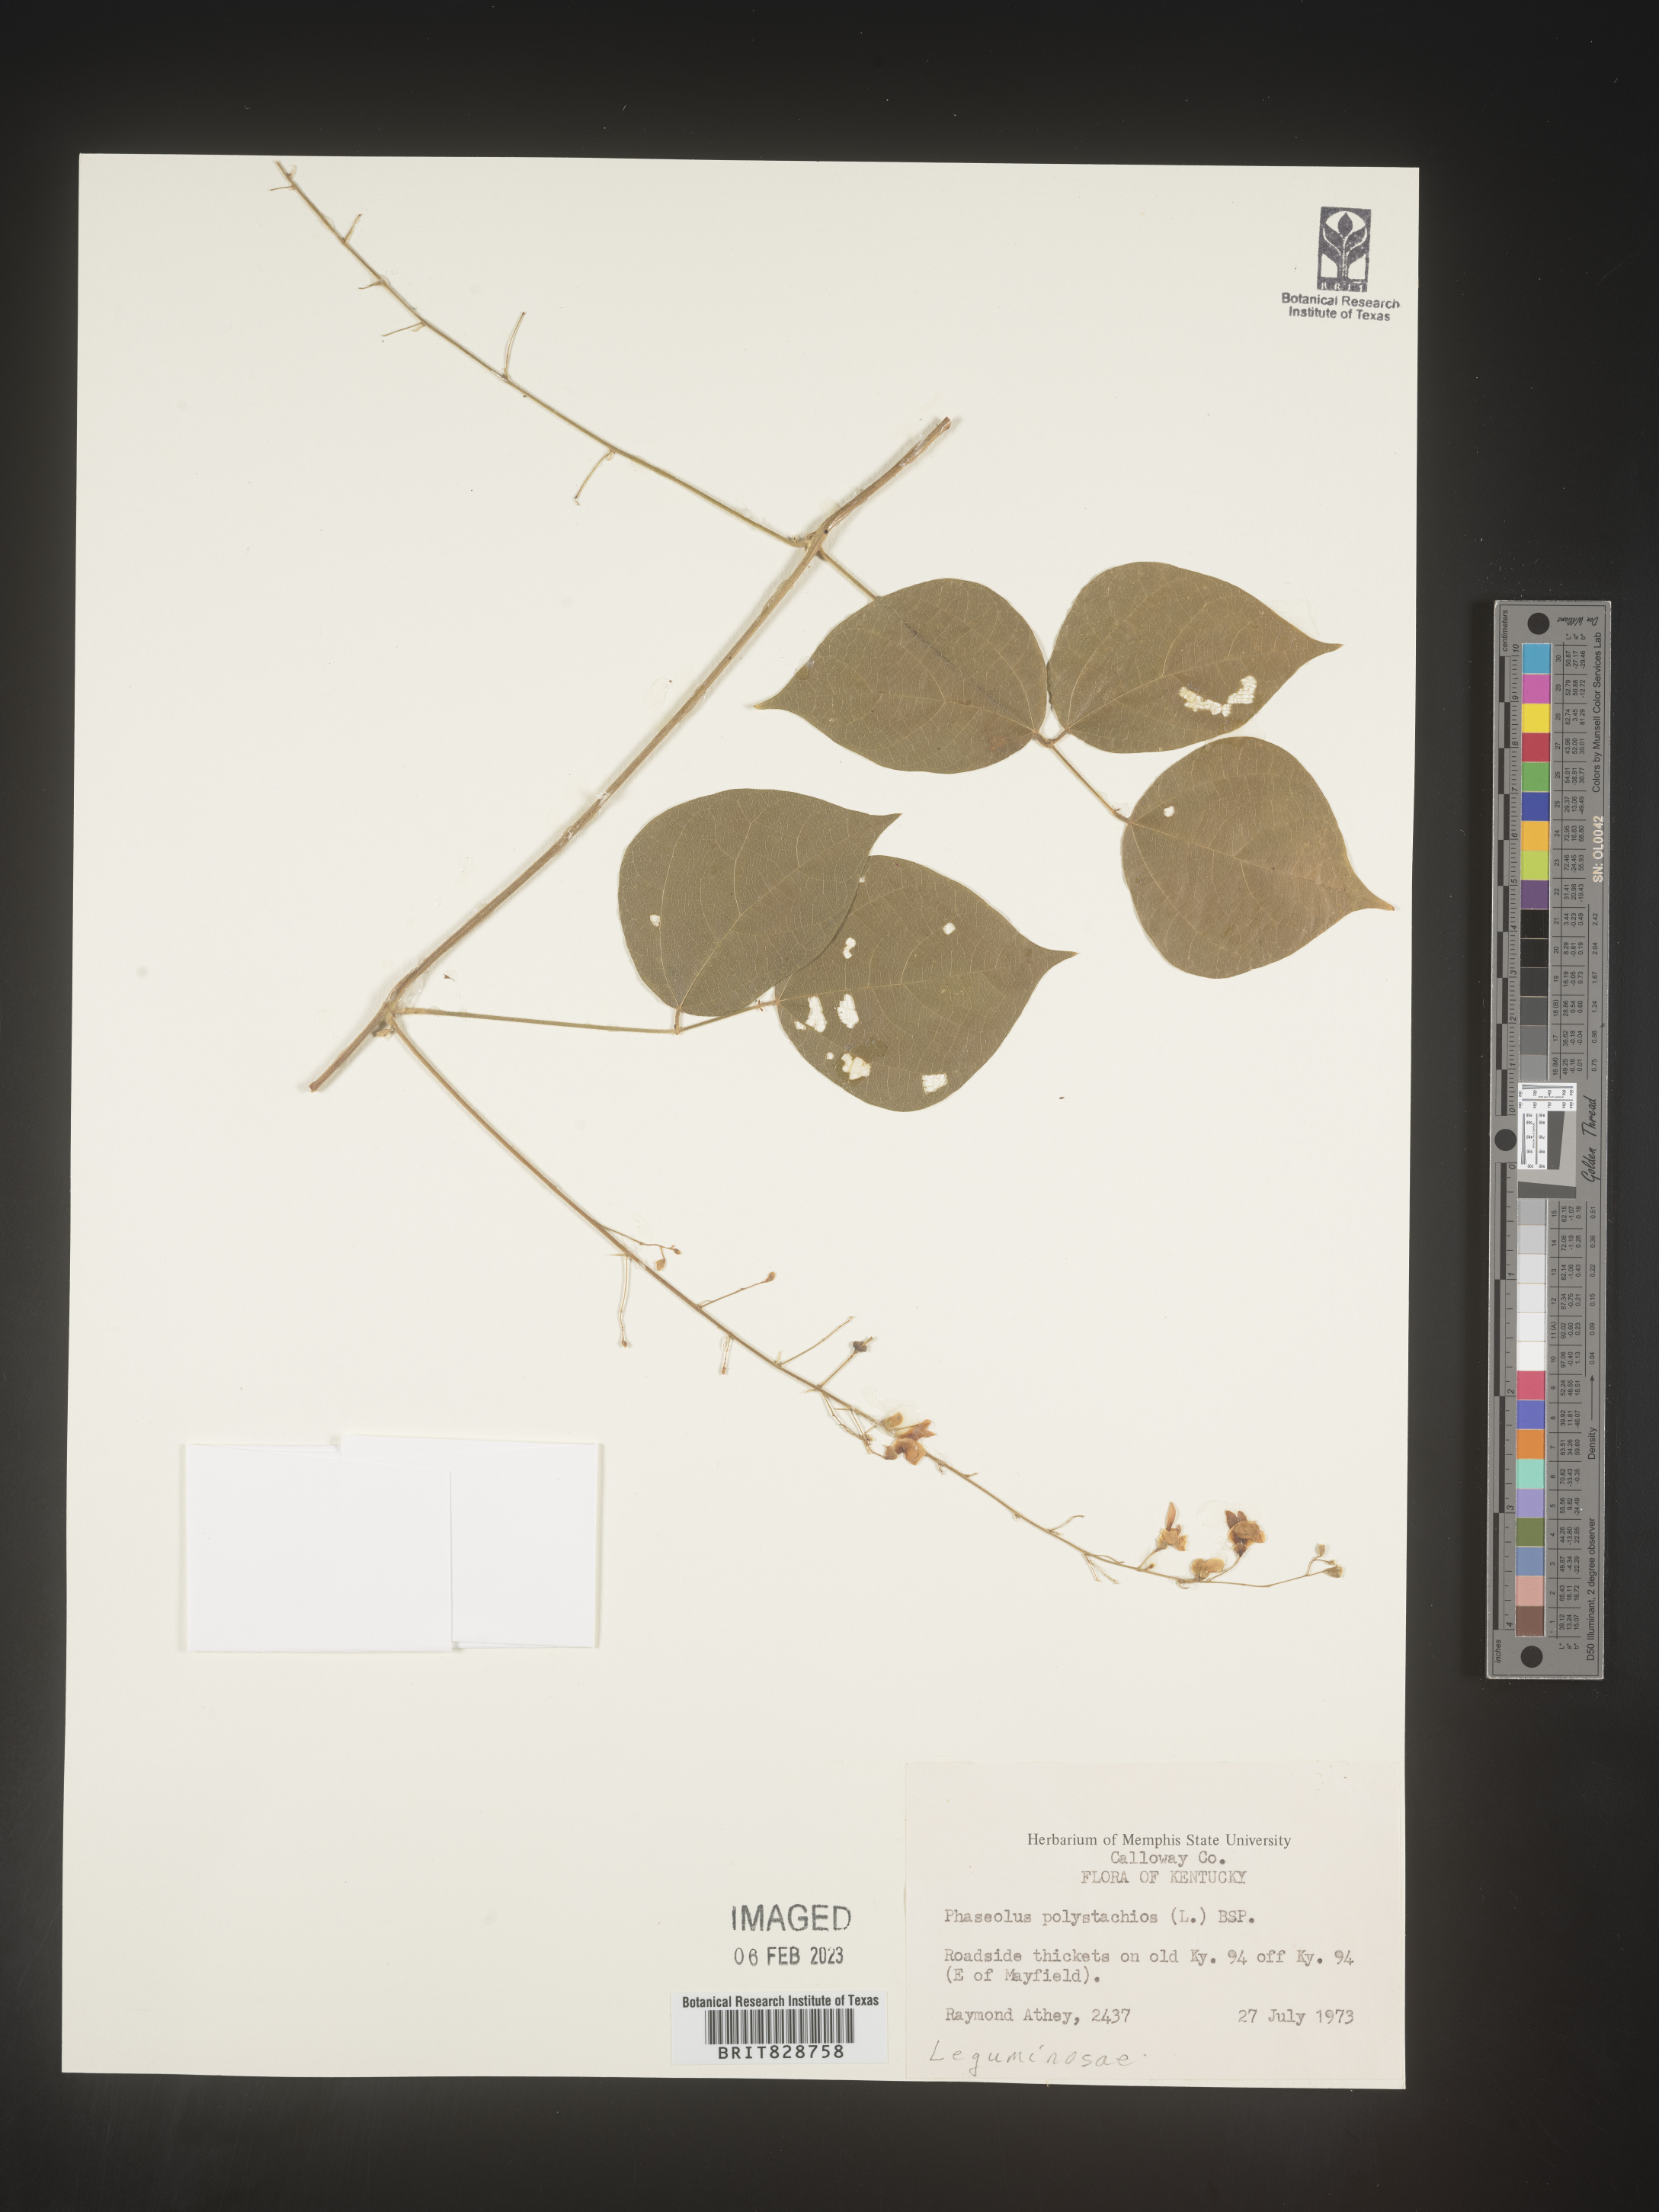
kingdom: Plantae
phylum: Tracheophyta
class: Magnoliopsida
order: Fabales
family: Fabaceae
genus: Phaseolus
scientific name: Phaseolus polystachios
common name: Thicket bean
